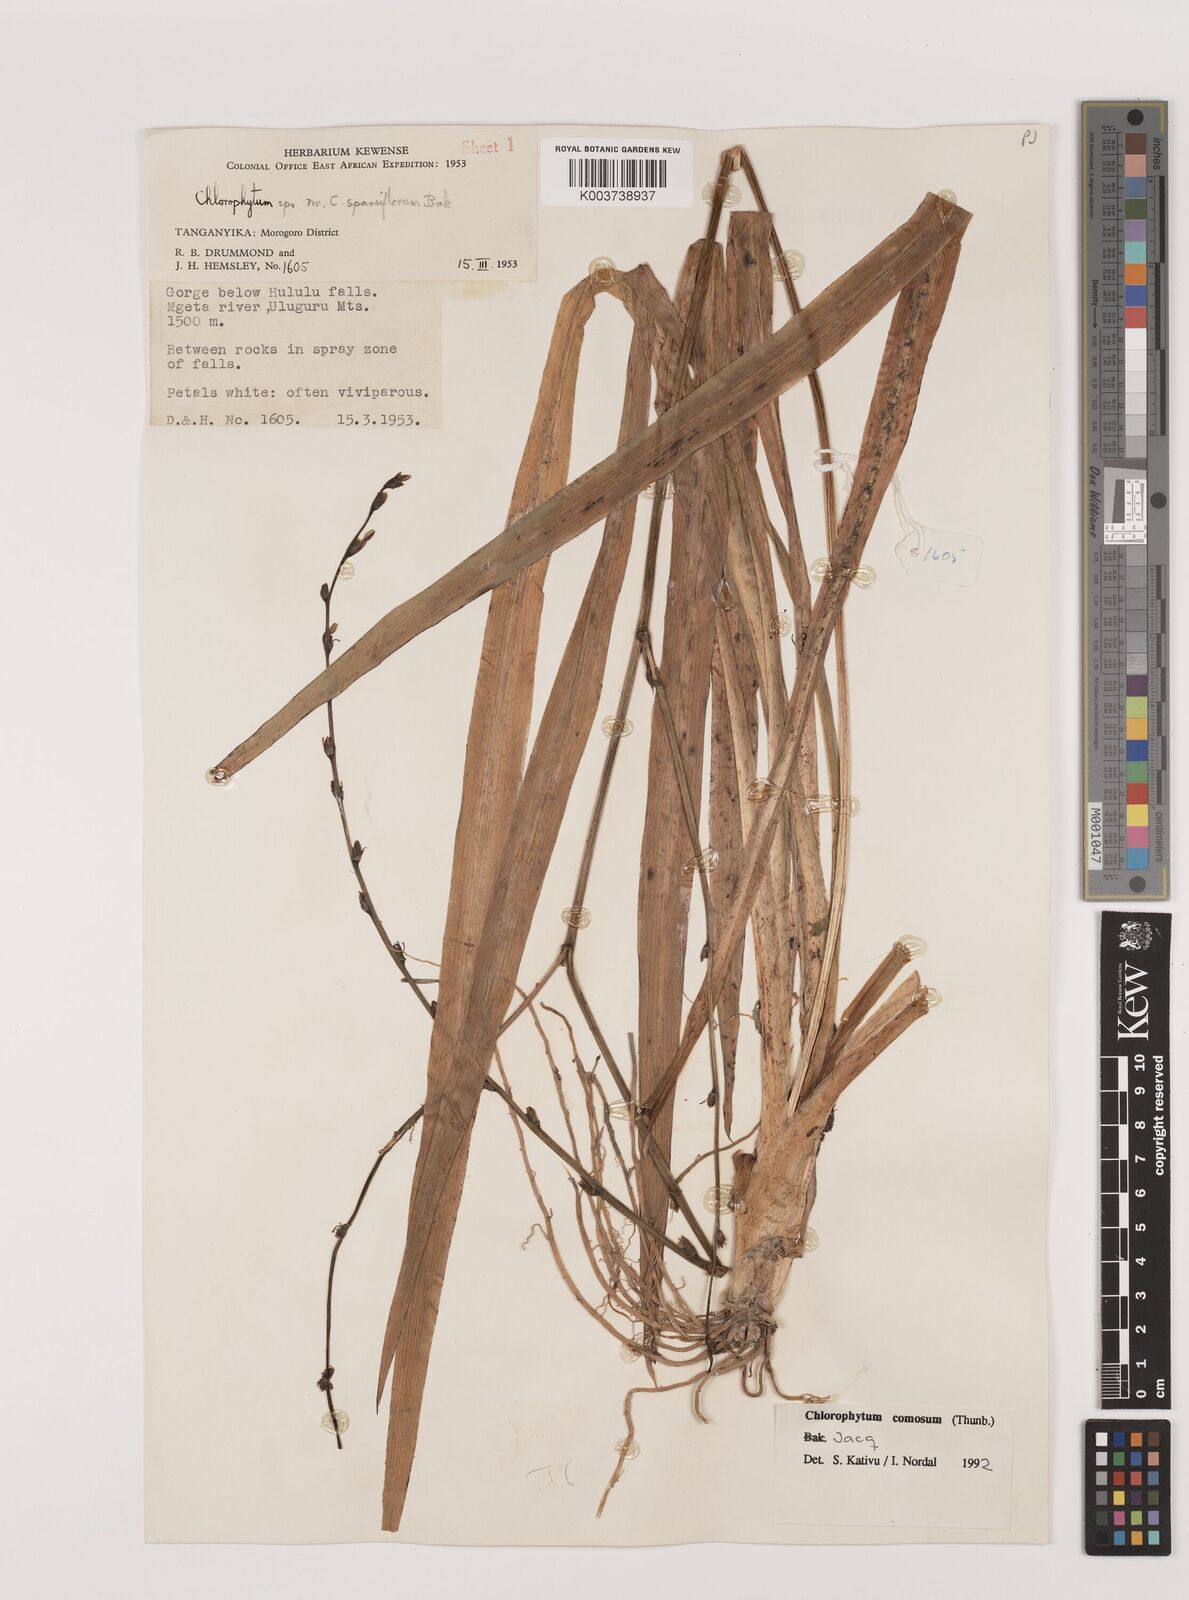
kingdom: Plantae
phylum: Tracheophyta
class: Liliopsida
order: Asparagales
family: Asparagaceae
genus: Chlorophytum
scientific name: Chlorophytum comosum
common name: Spider plant
